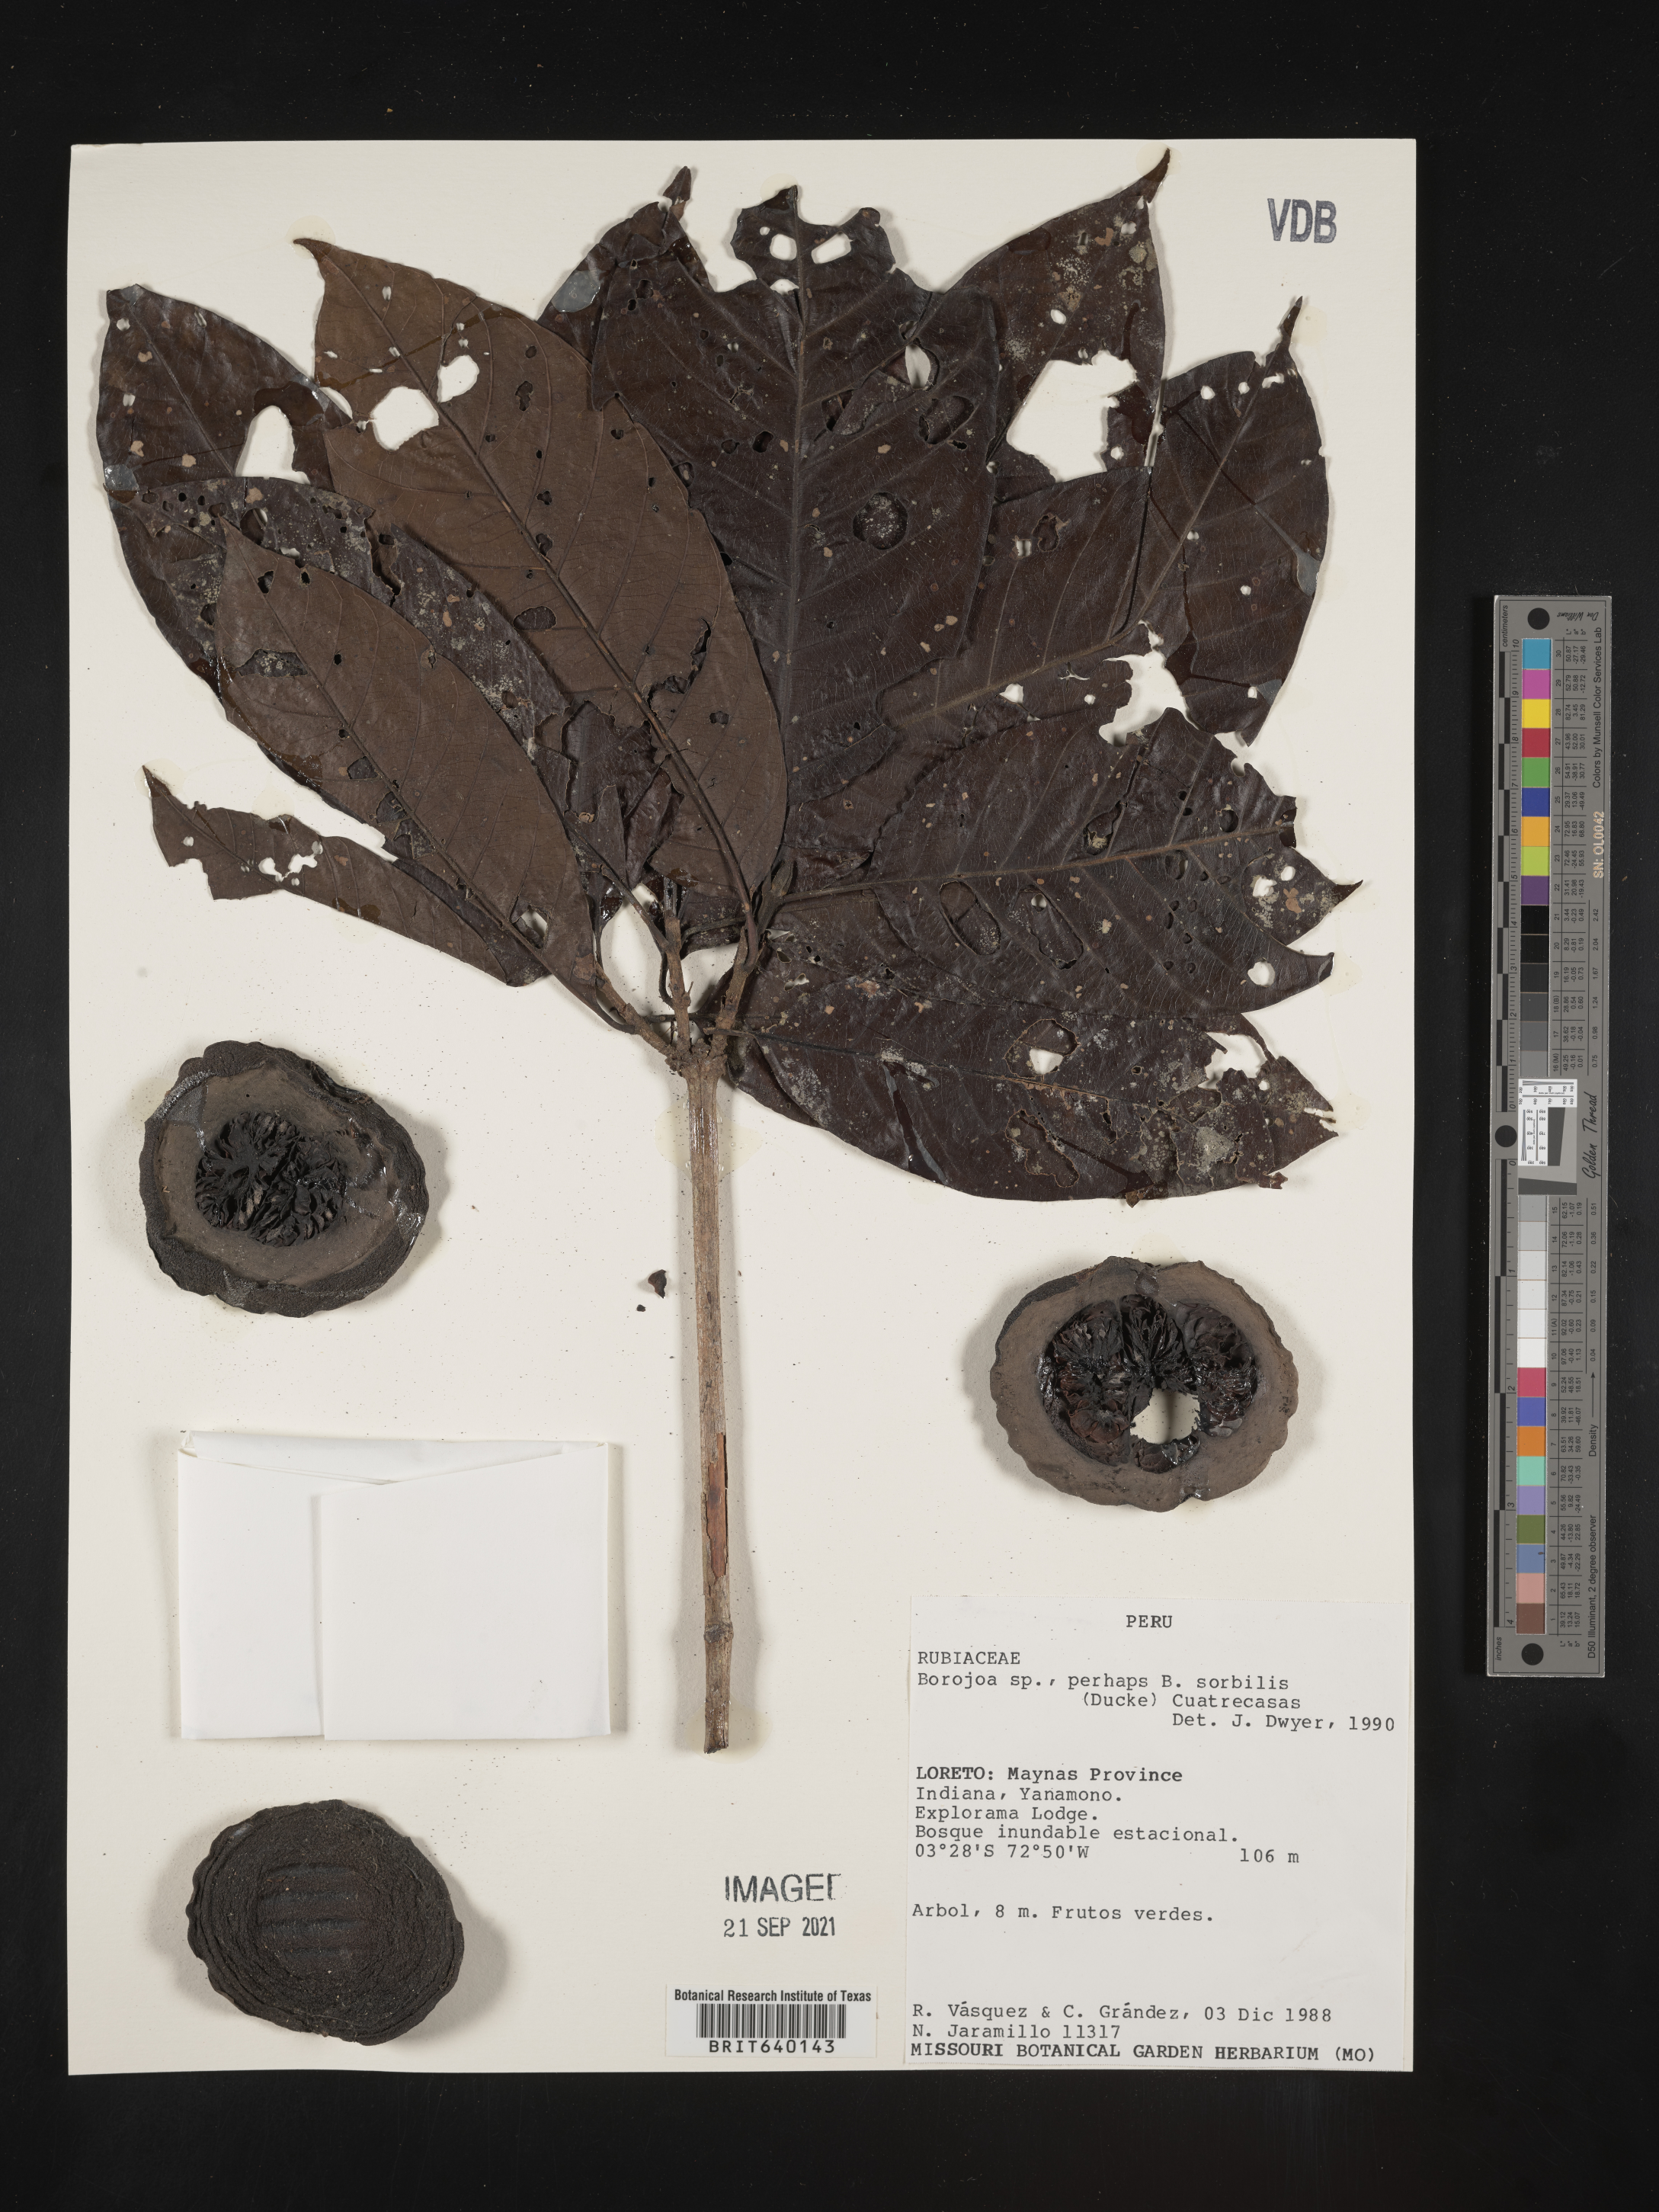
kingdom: Plantae
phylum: Tracheophyta
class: Magnoliopsida
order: Gentianales
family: Rubiaceae
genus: Alibertia
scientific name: Alibertia
